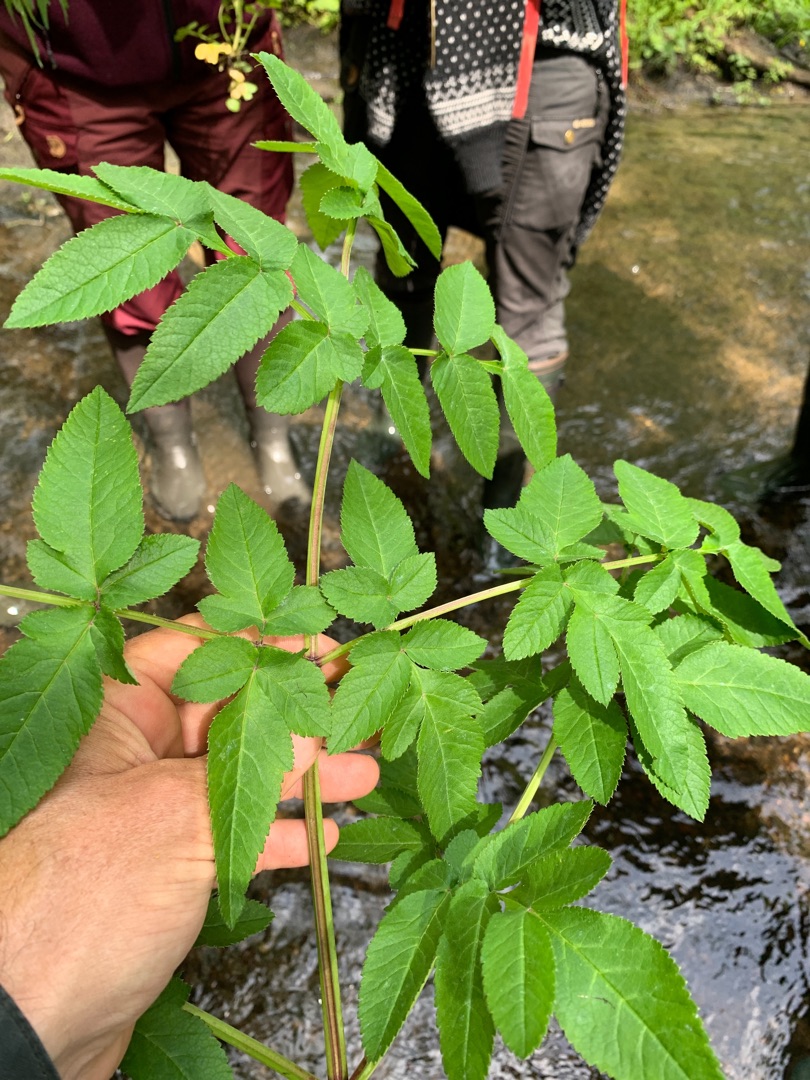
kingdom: Plantae
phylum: Tracheophyta
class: Magnoliopsida
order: Apiales
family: Apiaceae
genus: Angelica
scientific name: Angelica sylvestris
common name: Angelik
